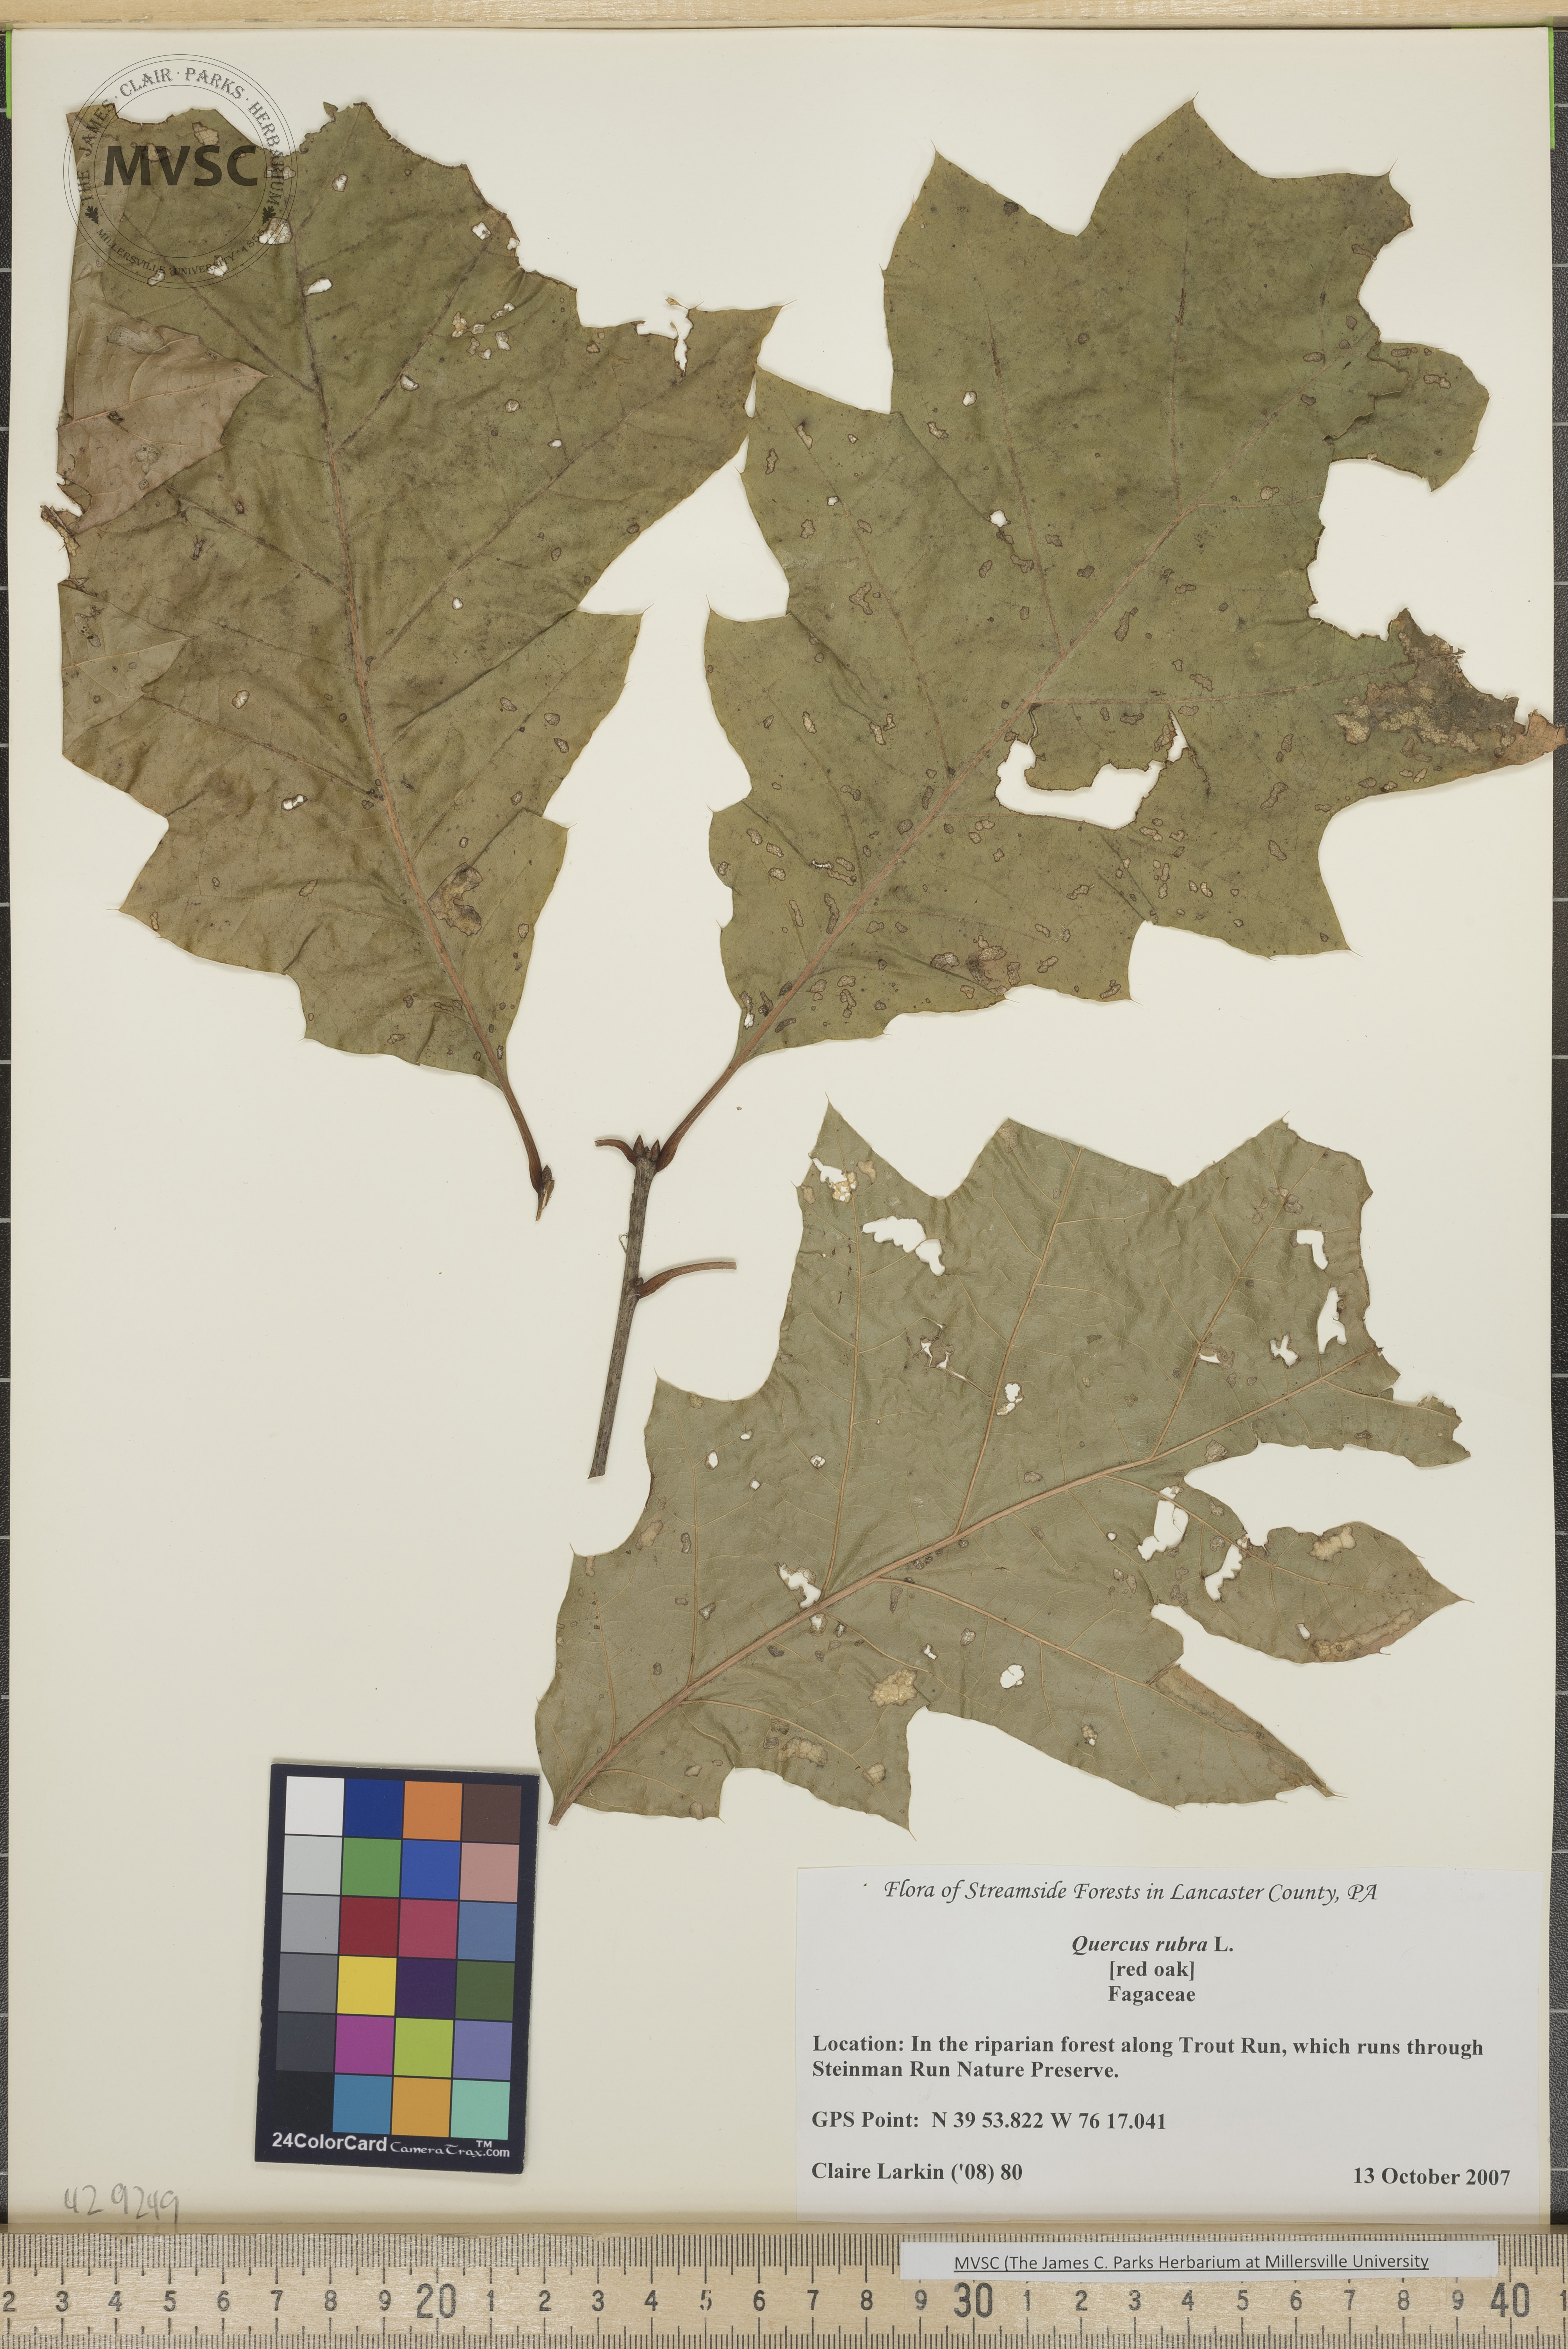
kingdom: Plantae
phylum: Tracheophyta
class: Magnoliopsida
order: Fagales
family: Fagaceae
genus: Quercus
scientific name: Quercus rubra
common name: Red oak
